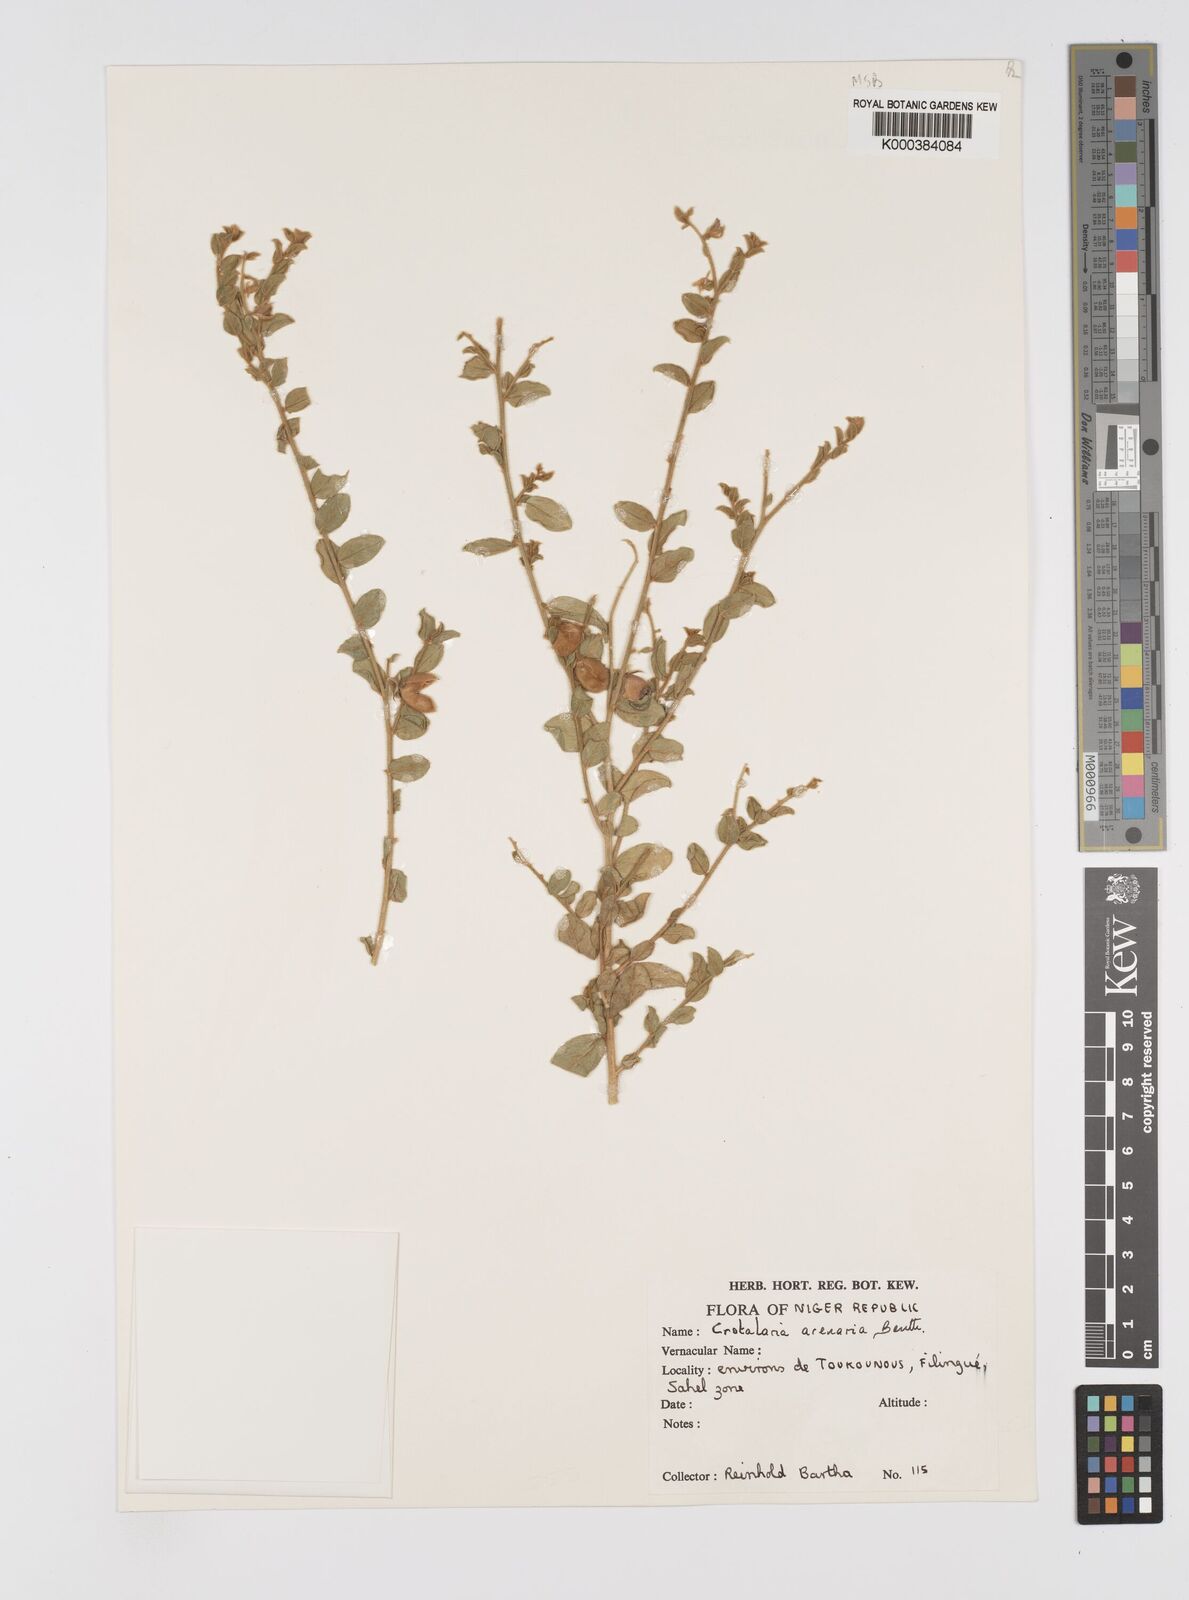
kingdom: Plantae
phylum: Tracheophyta
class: Magnoliopsida
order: Fabales
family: Fabaceae
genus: Crotalaria
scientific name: Crotalaria arenaria
